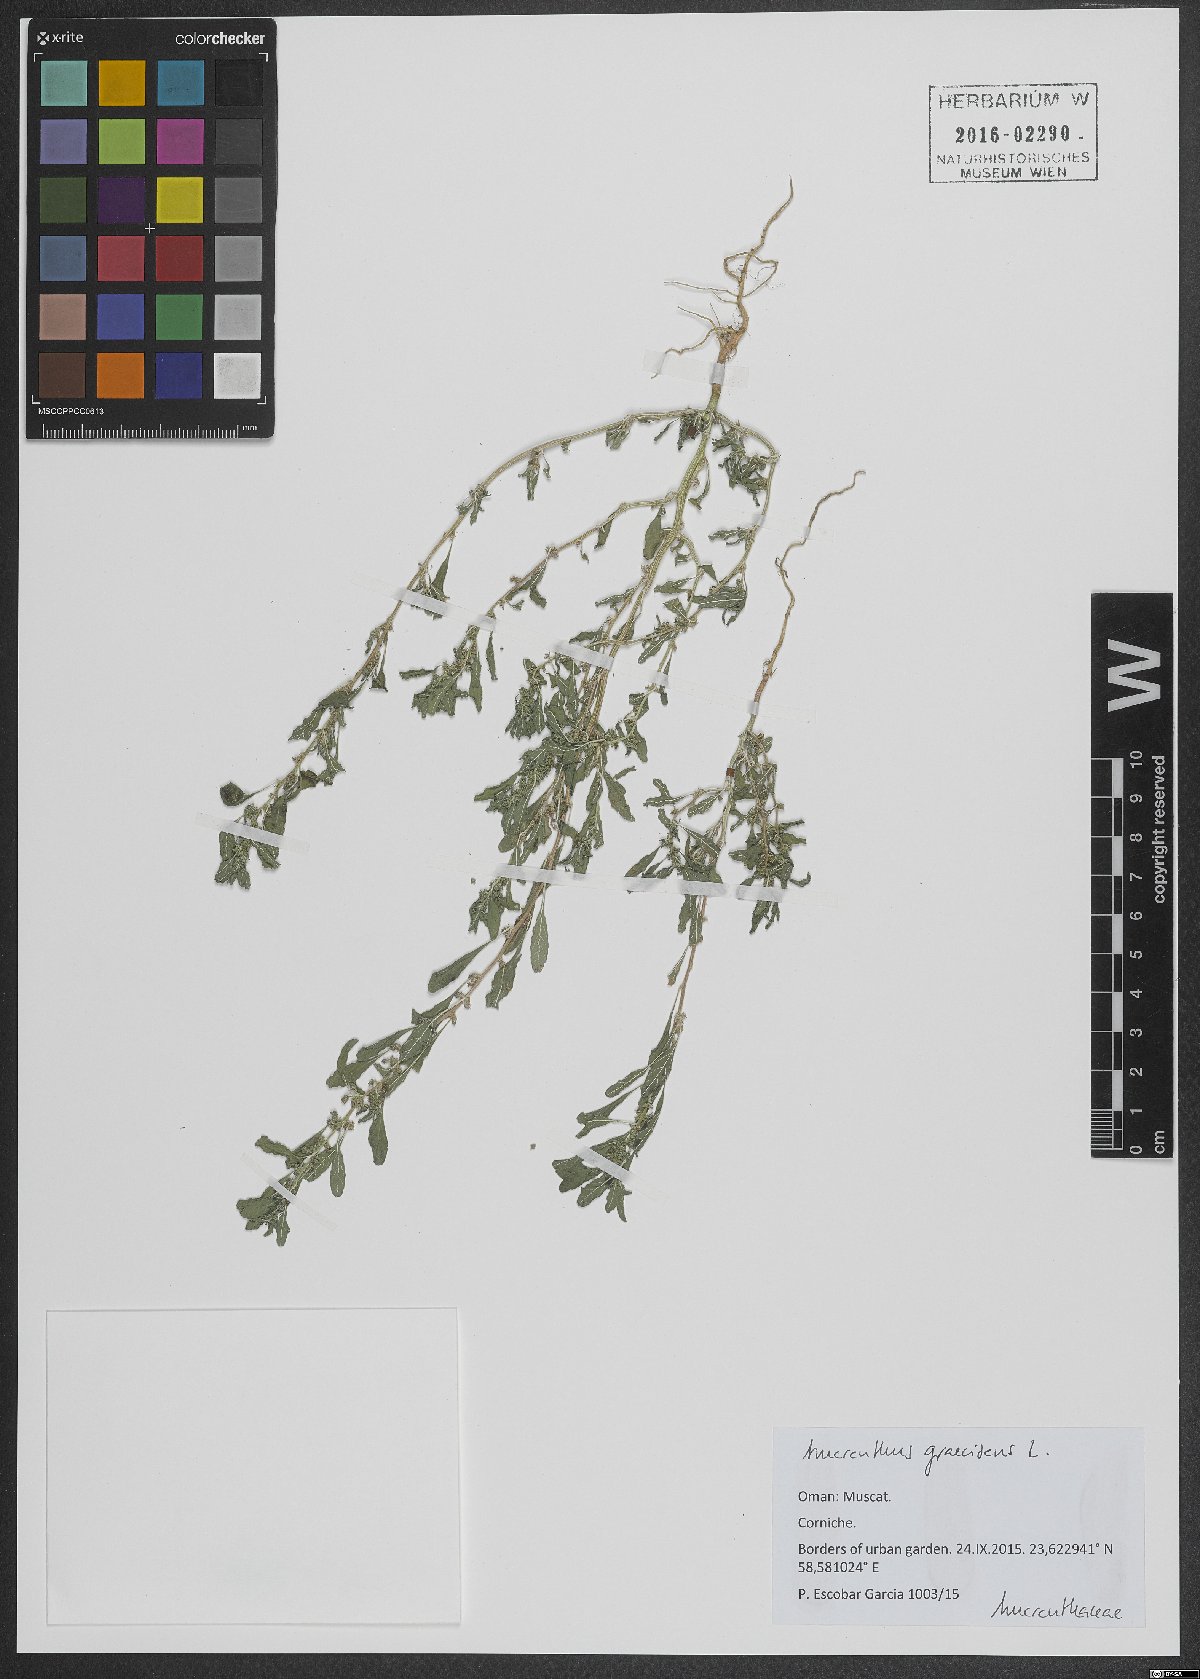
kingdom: Plantae
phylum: Tracheophyta
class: Magnoliopsida
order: Caryophyllales
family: Amaranthaceae
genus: Amaranthus
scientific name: Amaranthus graecizans
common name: Mediterranean amaranth
